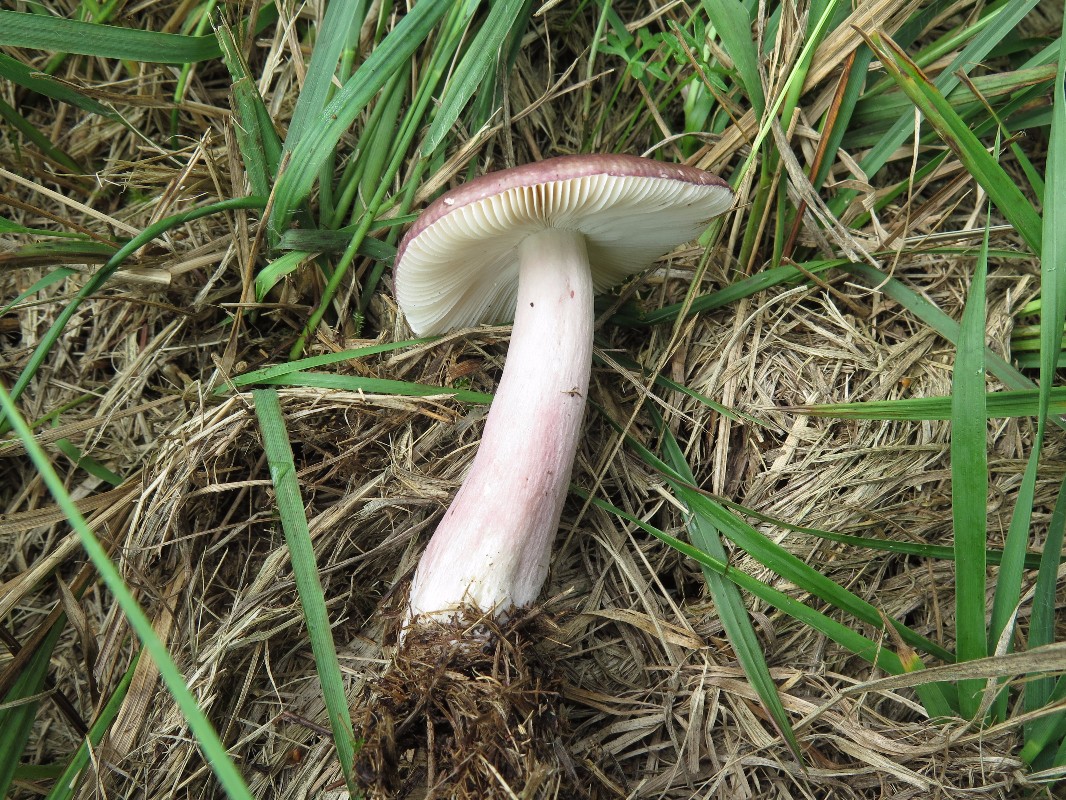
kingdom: Fungi
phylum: Basidiomycota
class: Agaricomycetes
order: Russulales
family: Russulaceae
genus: Russula
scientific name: Russula queletii
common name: Quélets skørhat
